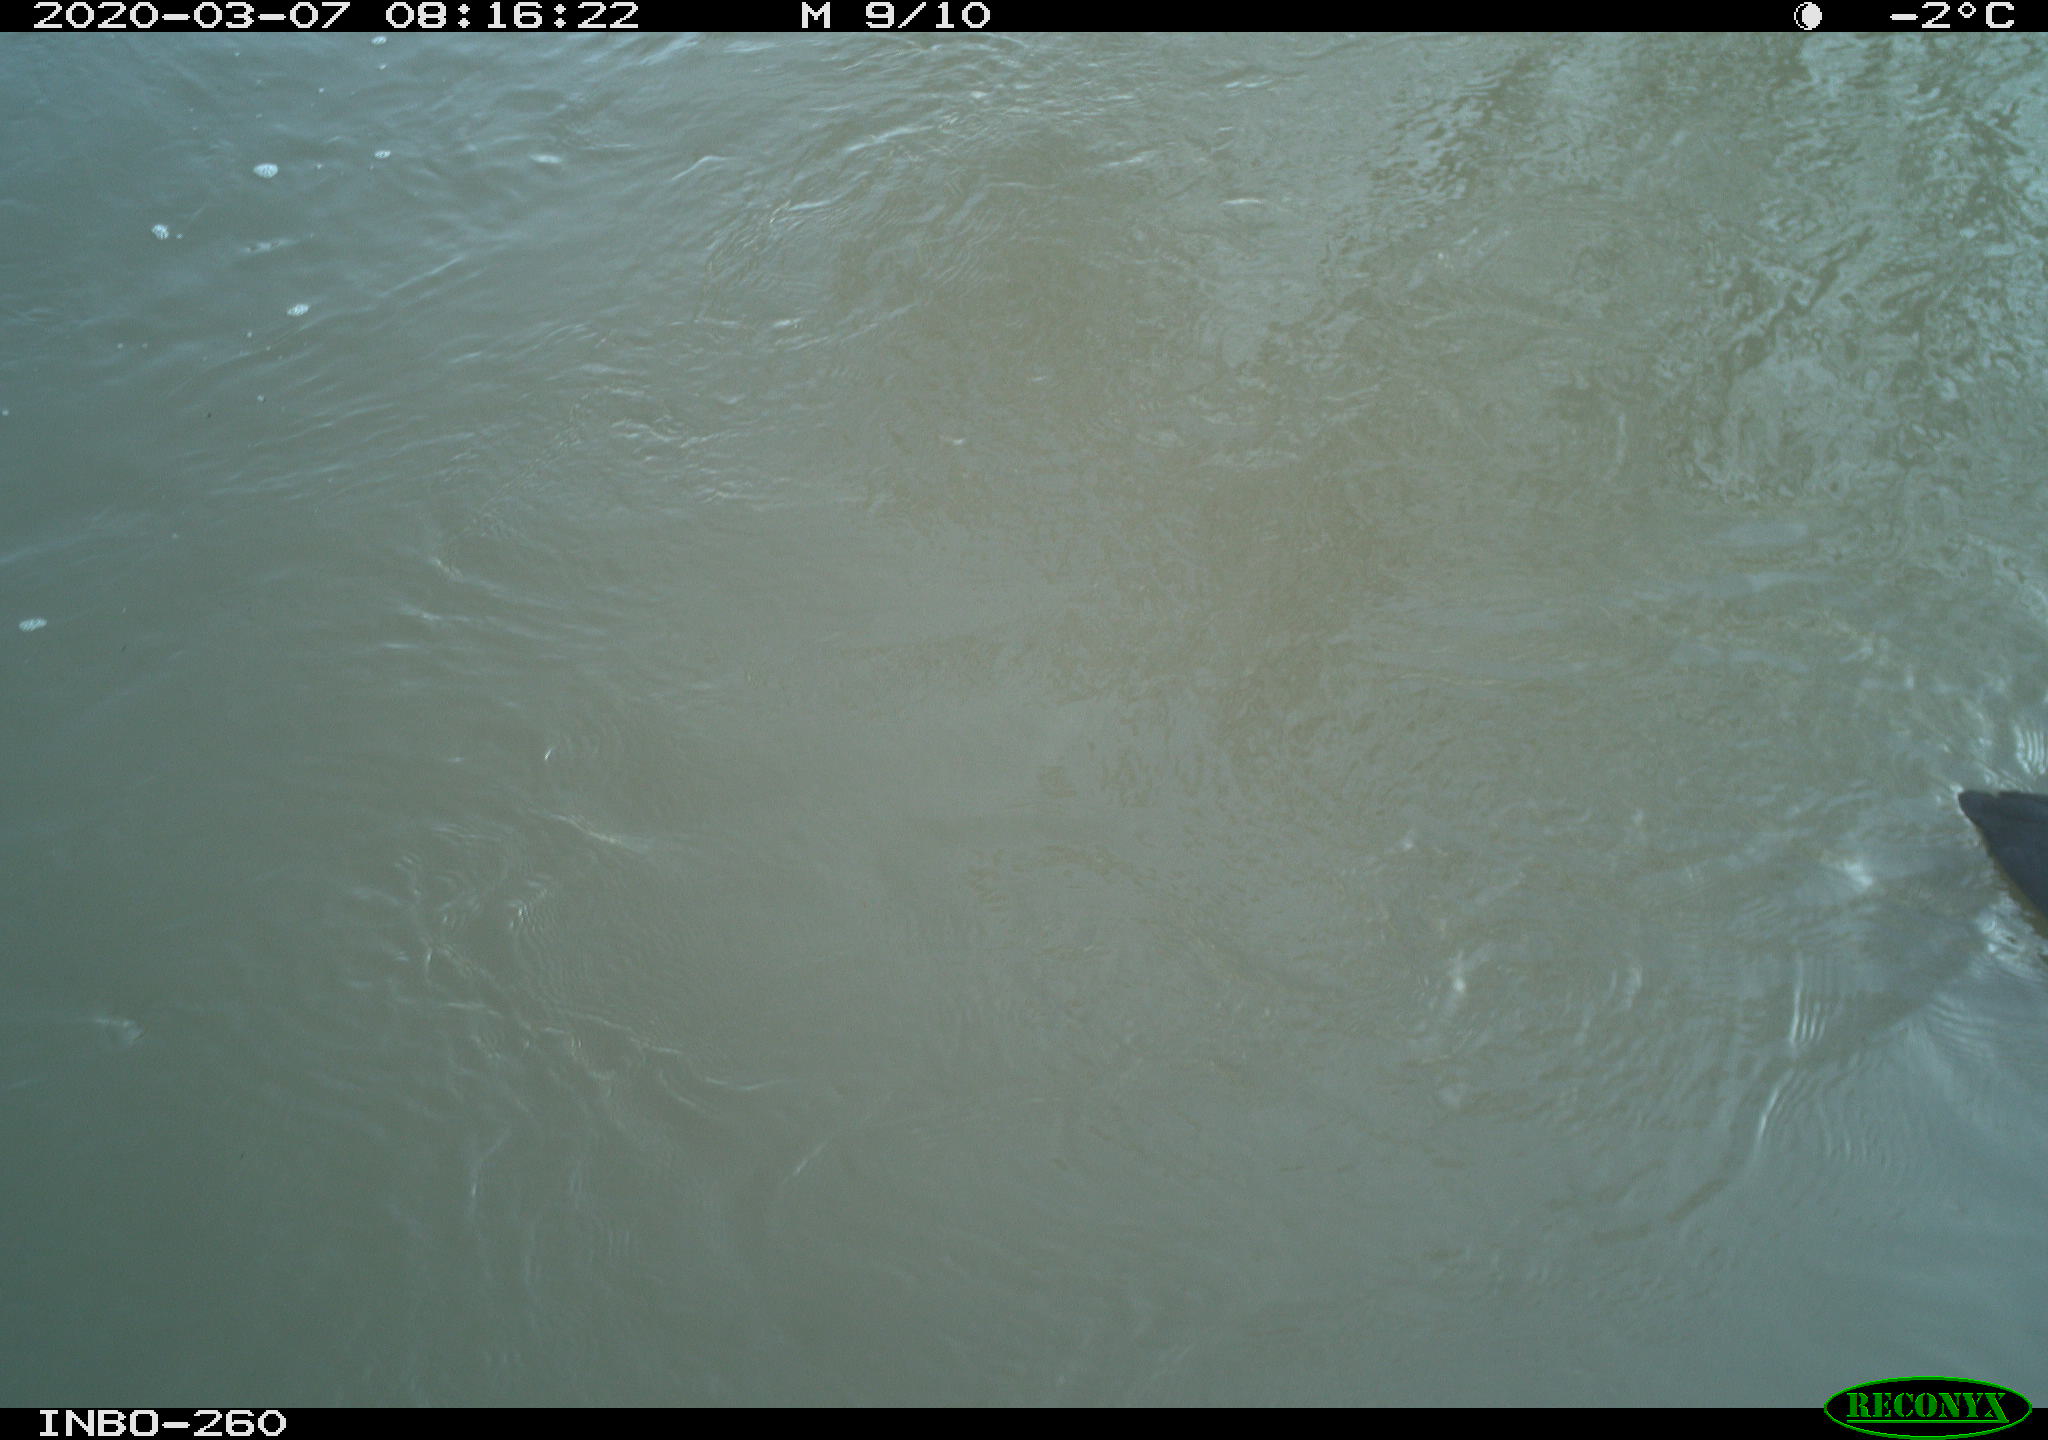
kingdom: Animalia
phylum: Chordata
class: Aves
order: Gruiformes
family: Rallidae
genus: Fulica
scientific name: Fulica atra
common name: Eurasian coot
